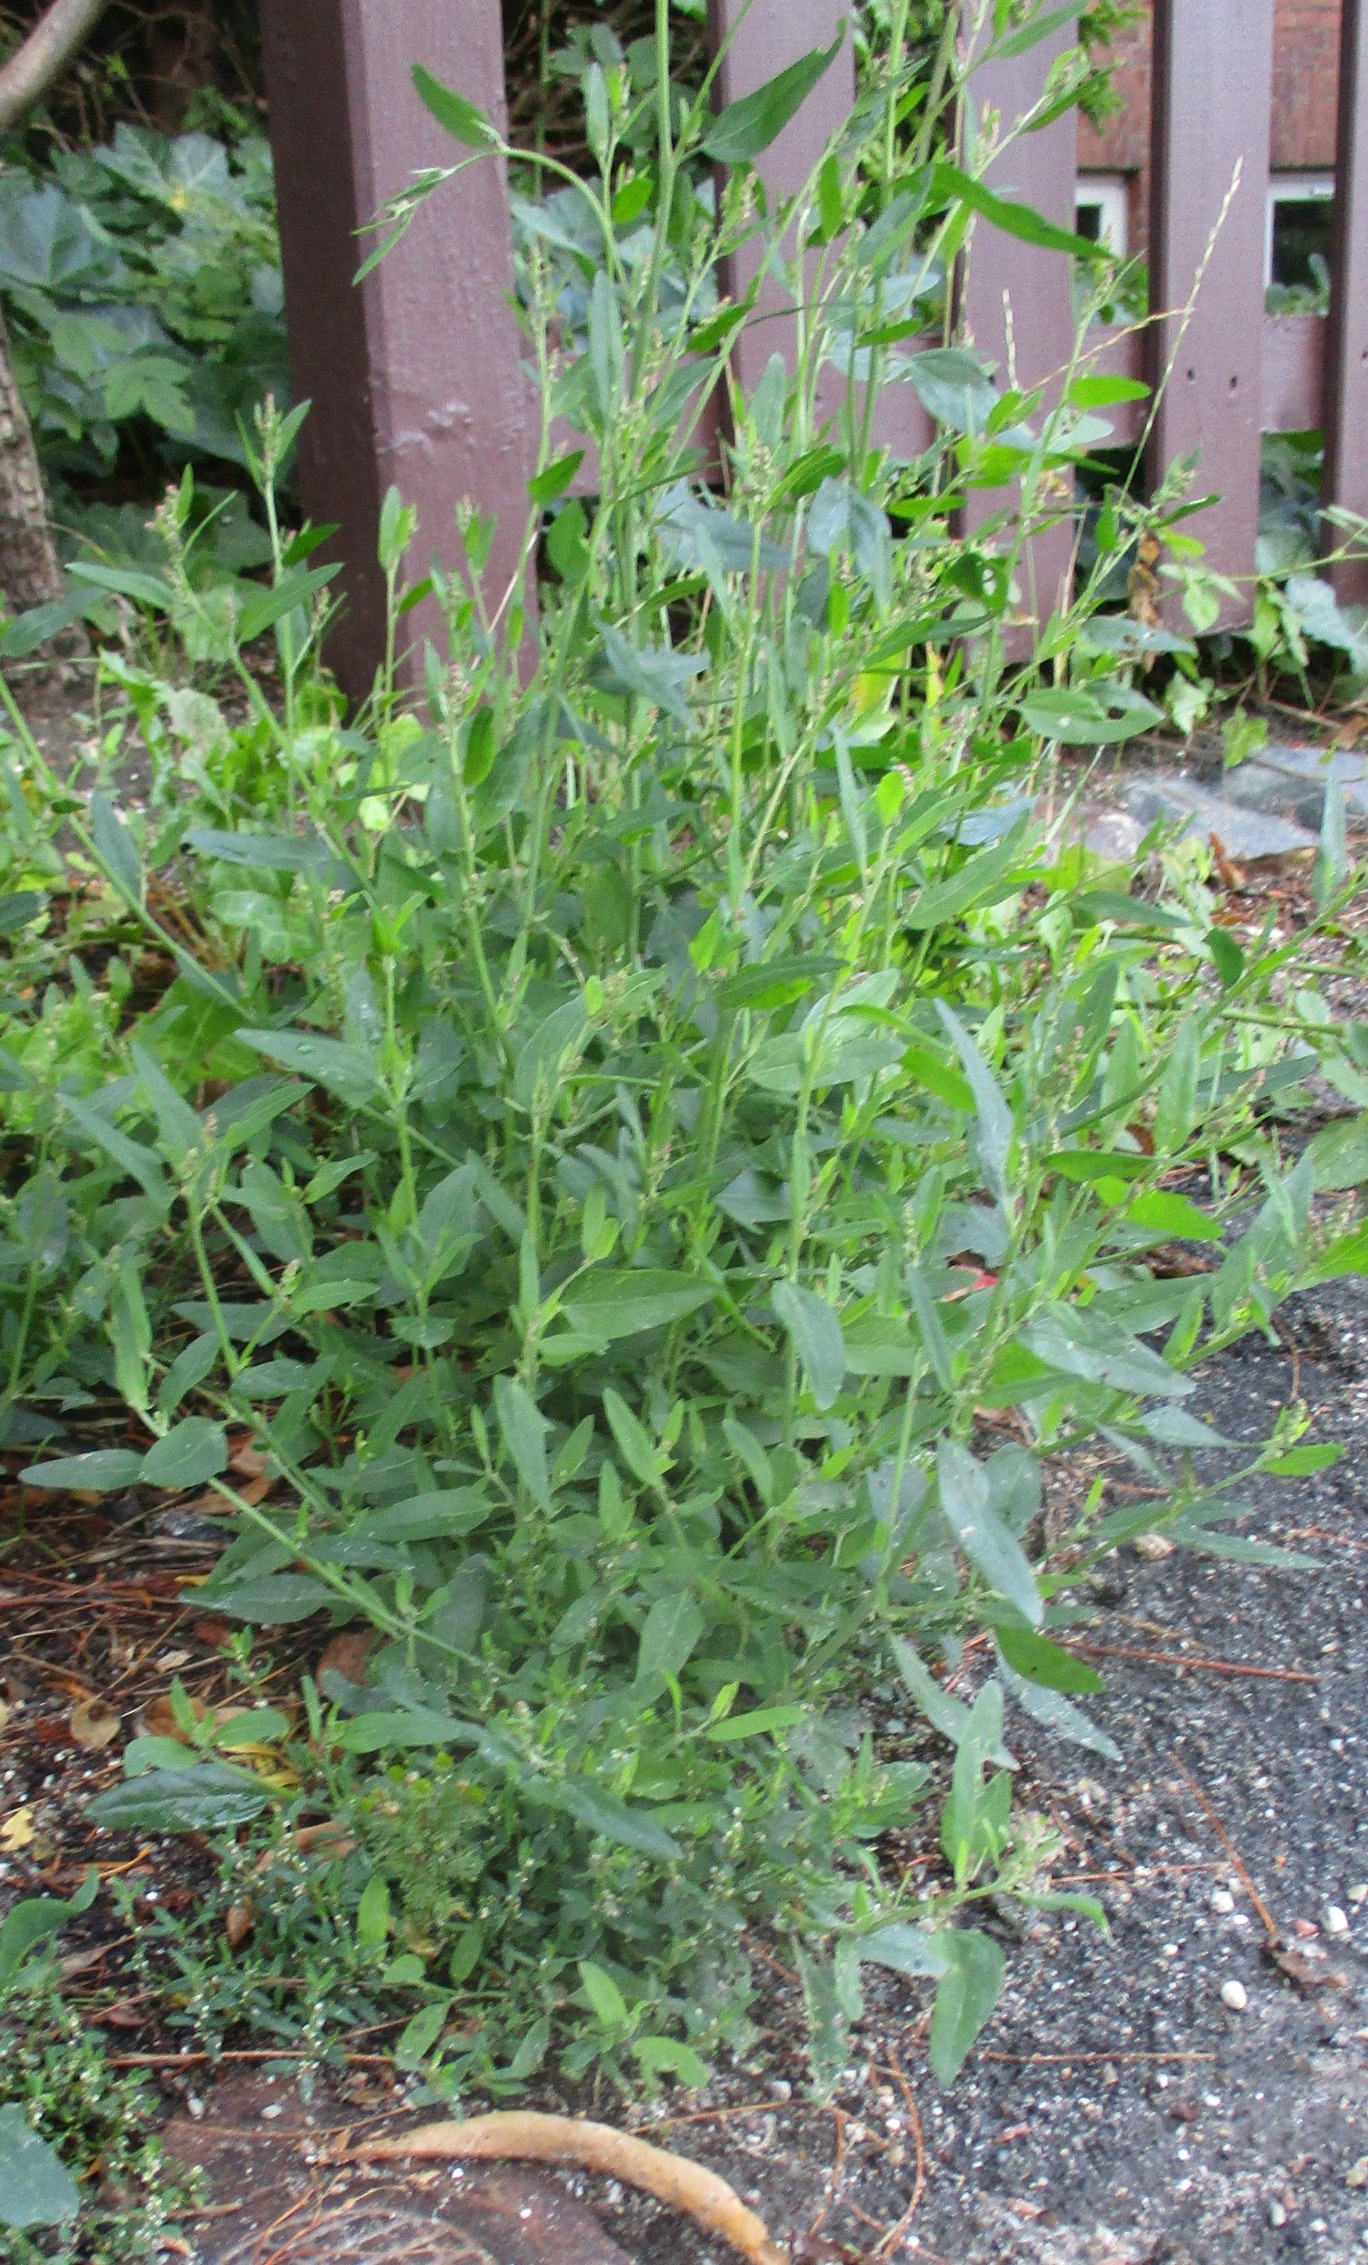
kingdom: Plantae
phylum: Tracheophyta
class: Magnoliopsida
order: Caryophyllales
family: Amaranthaceae
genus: Atriplex
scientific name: Atriplex patula
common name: Svine-mælde
